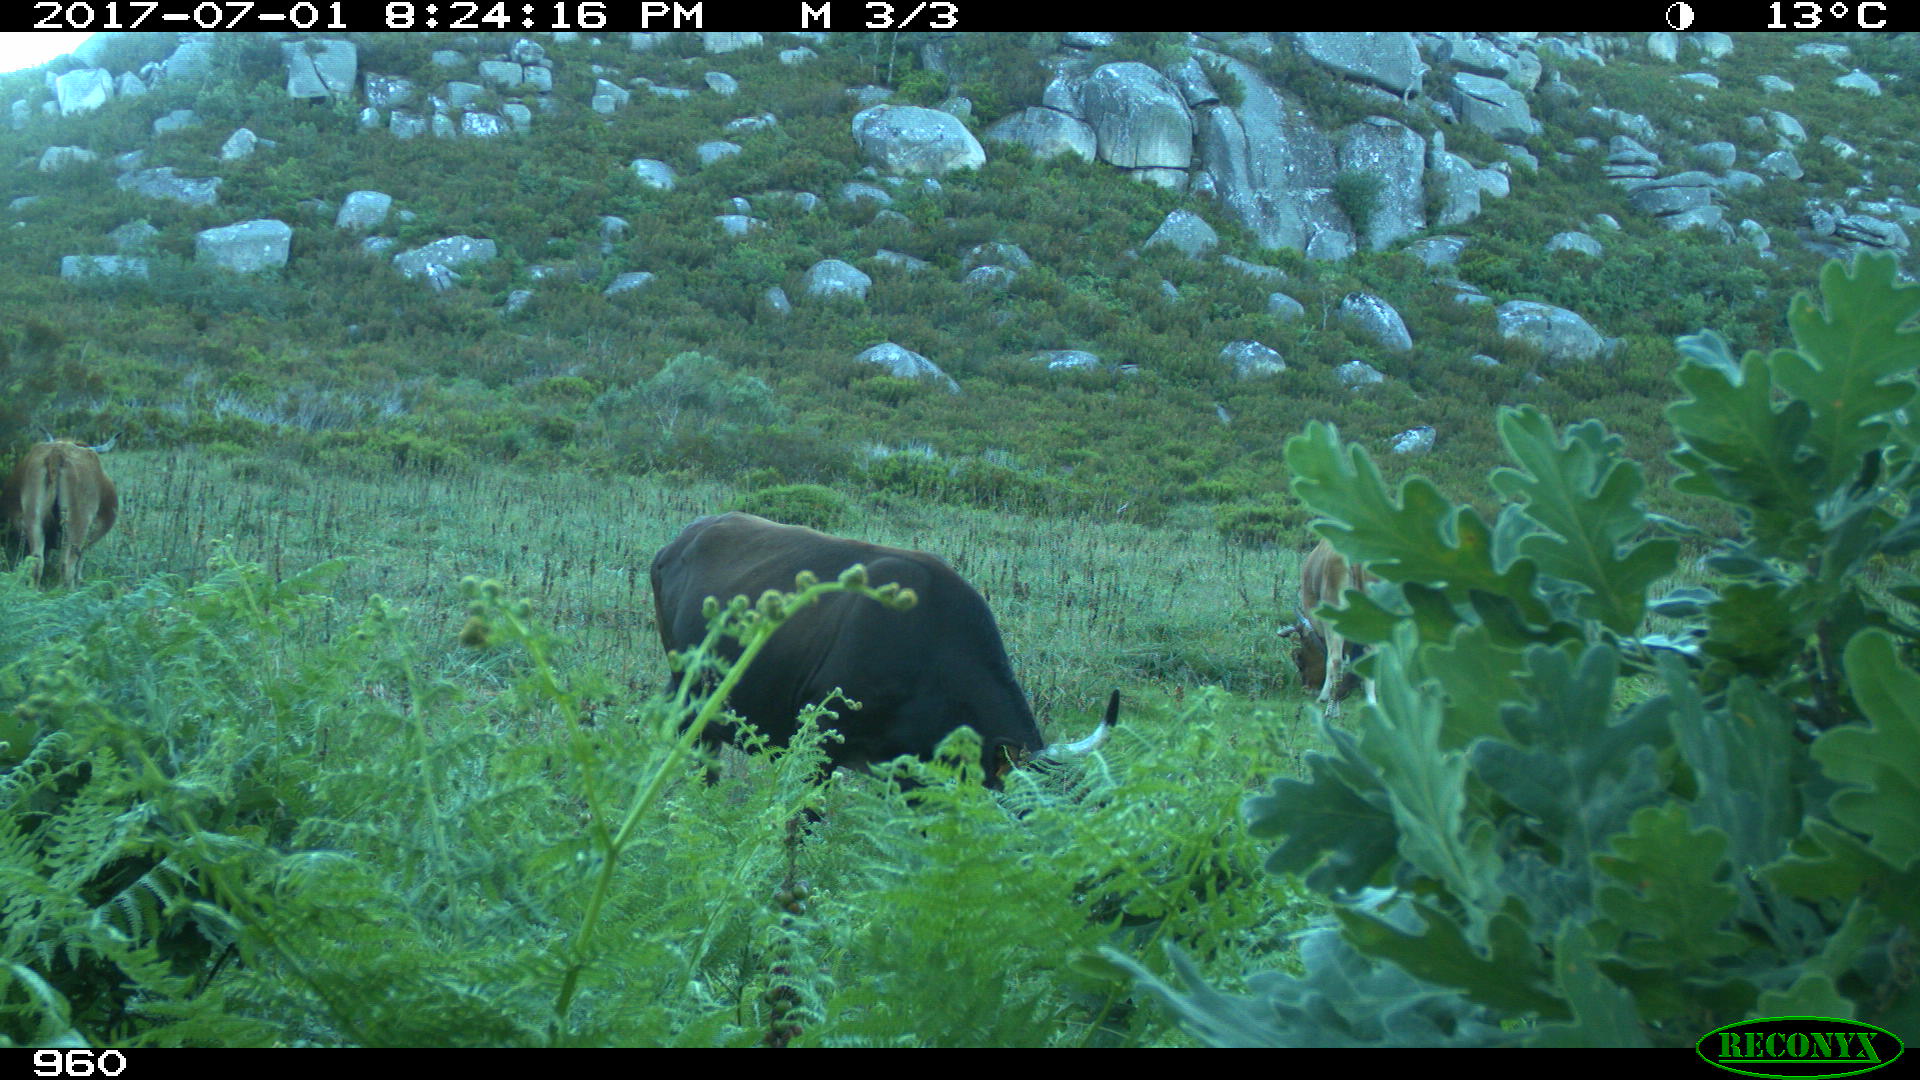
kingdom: Animalia
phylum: Chordata
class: Mammalia
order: Artiodactyla
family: Bovidae
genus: Bos
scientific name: Bos taurus
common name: Domesticated cattle
